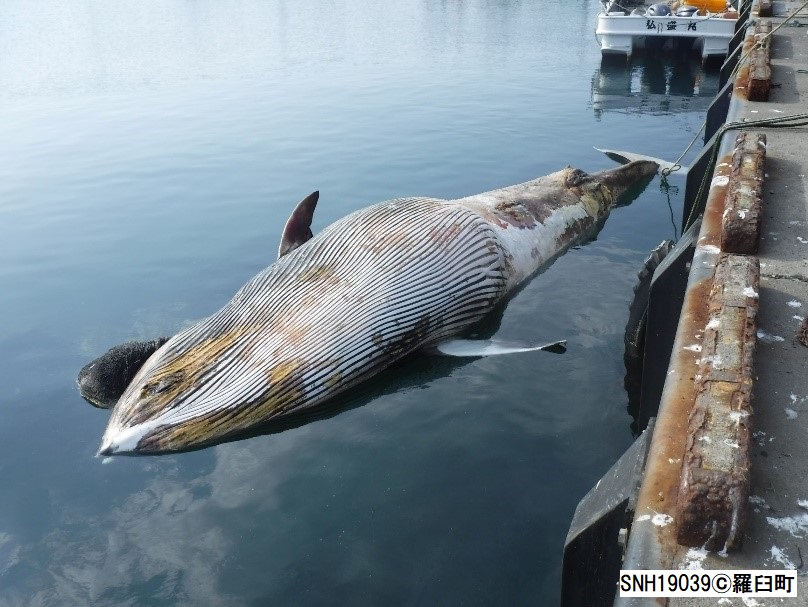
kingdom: Animalia
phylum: Chordata
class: Mammalia
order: Cetacea
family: Balaenopteridae
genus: Balaenoptera
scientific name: Balaenoptera acutorostrata
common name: Minke whale
